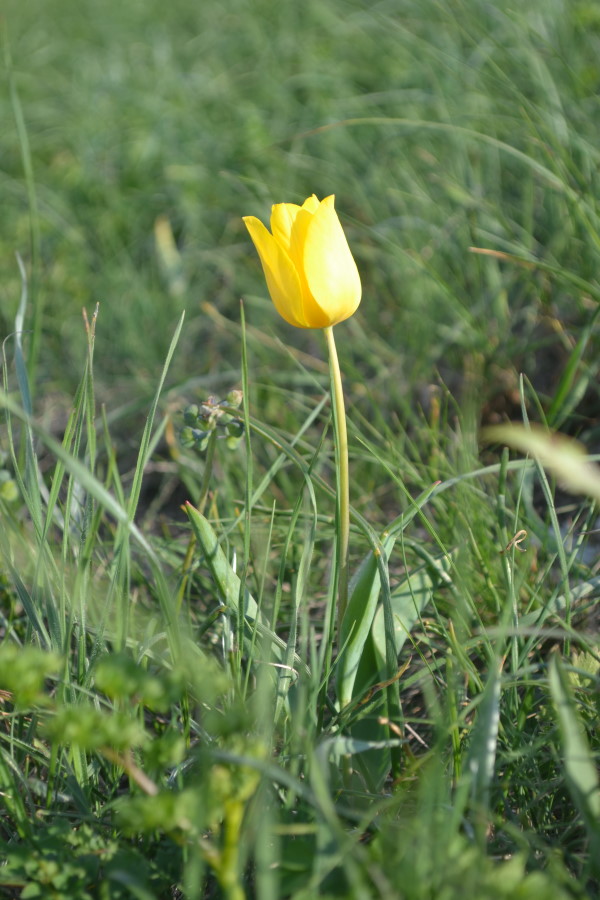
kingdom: Plantae
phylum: Tracheophyta
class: Liliopsida
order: Liliales
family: Liliaceae
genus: Tulipa
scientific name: Tulipa suaveolens
